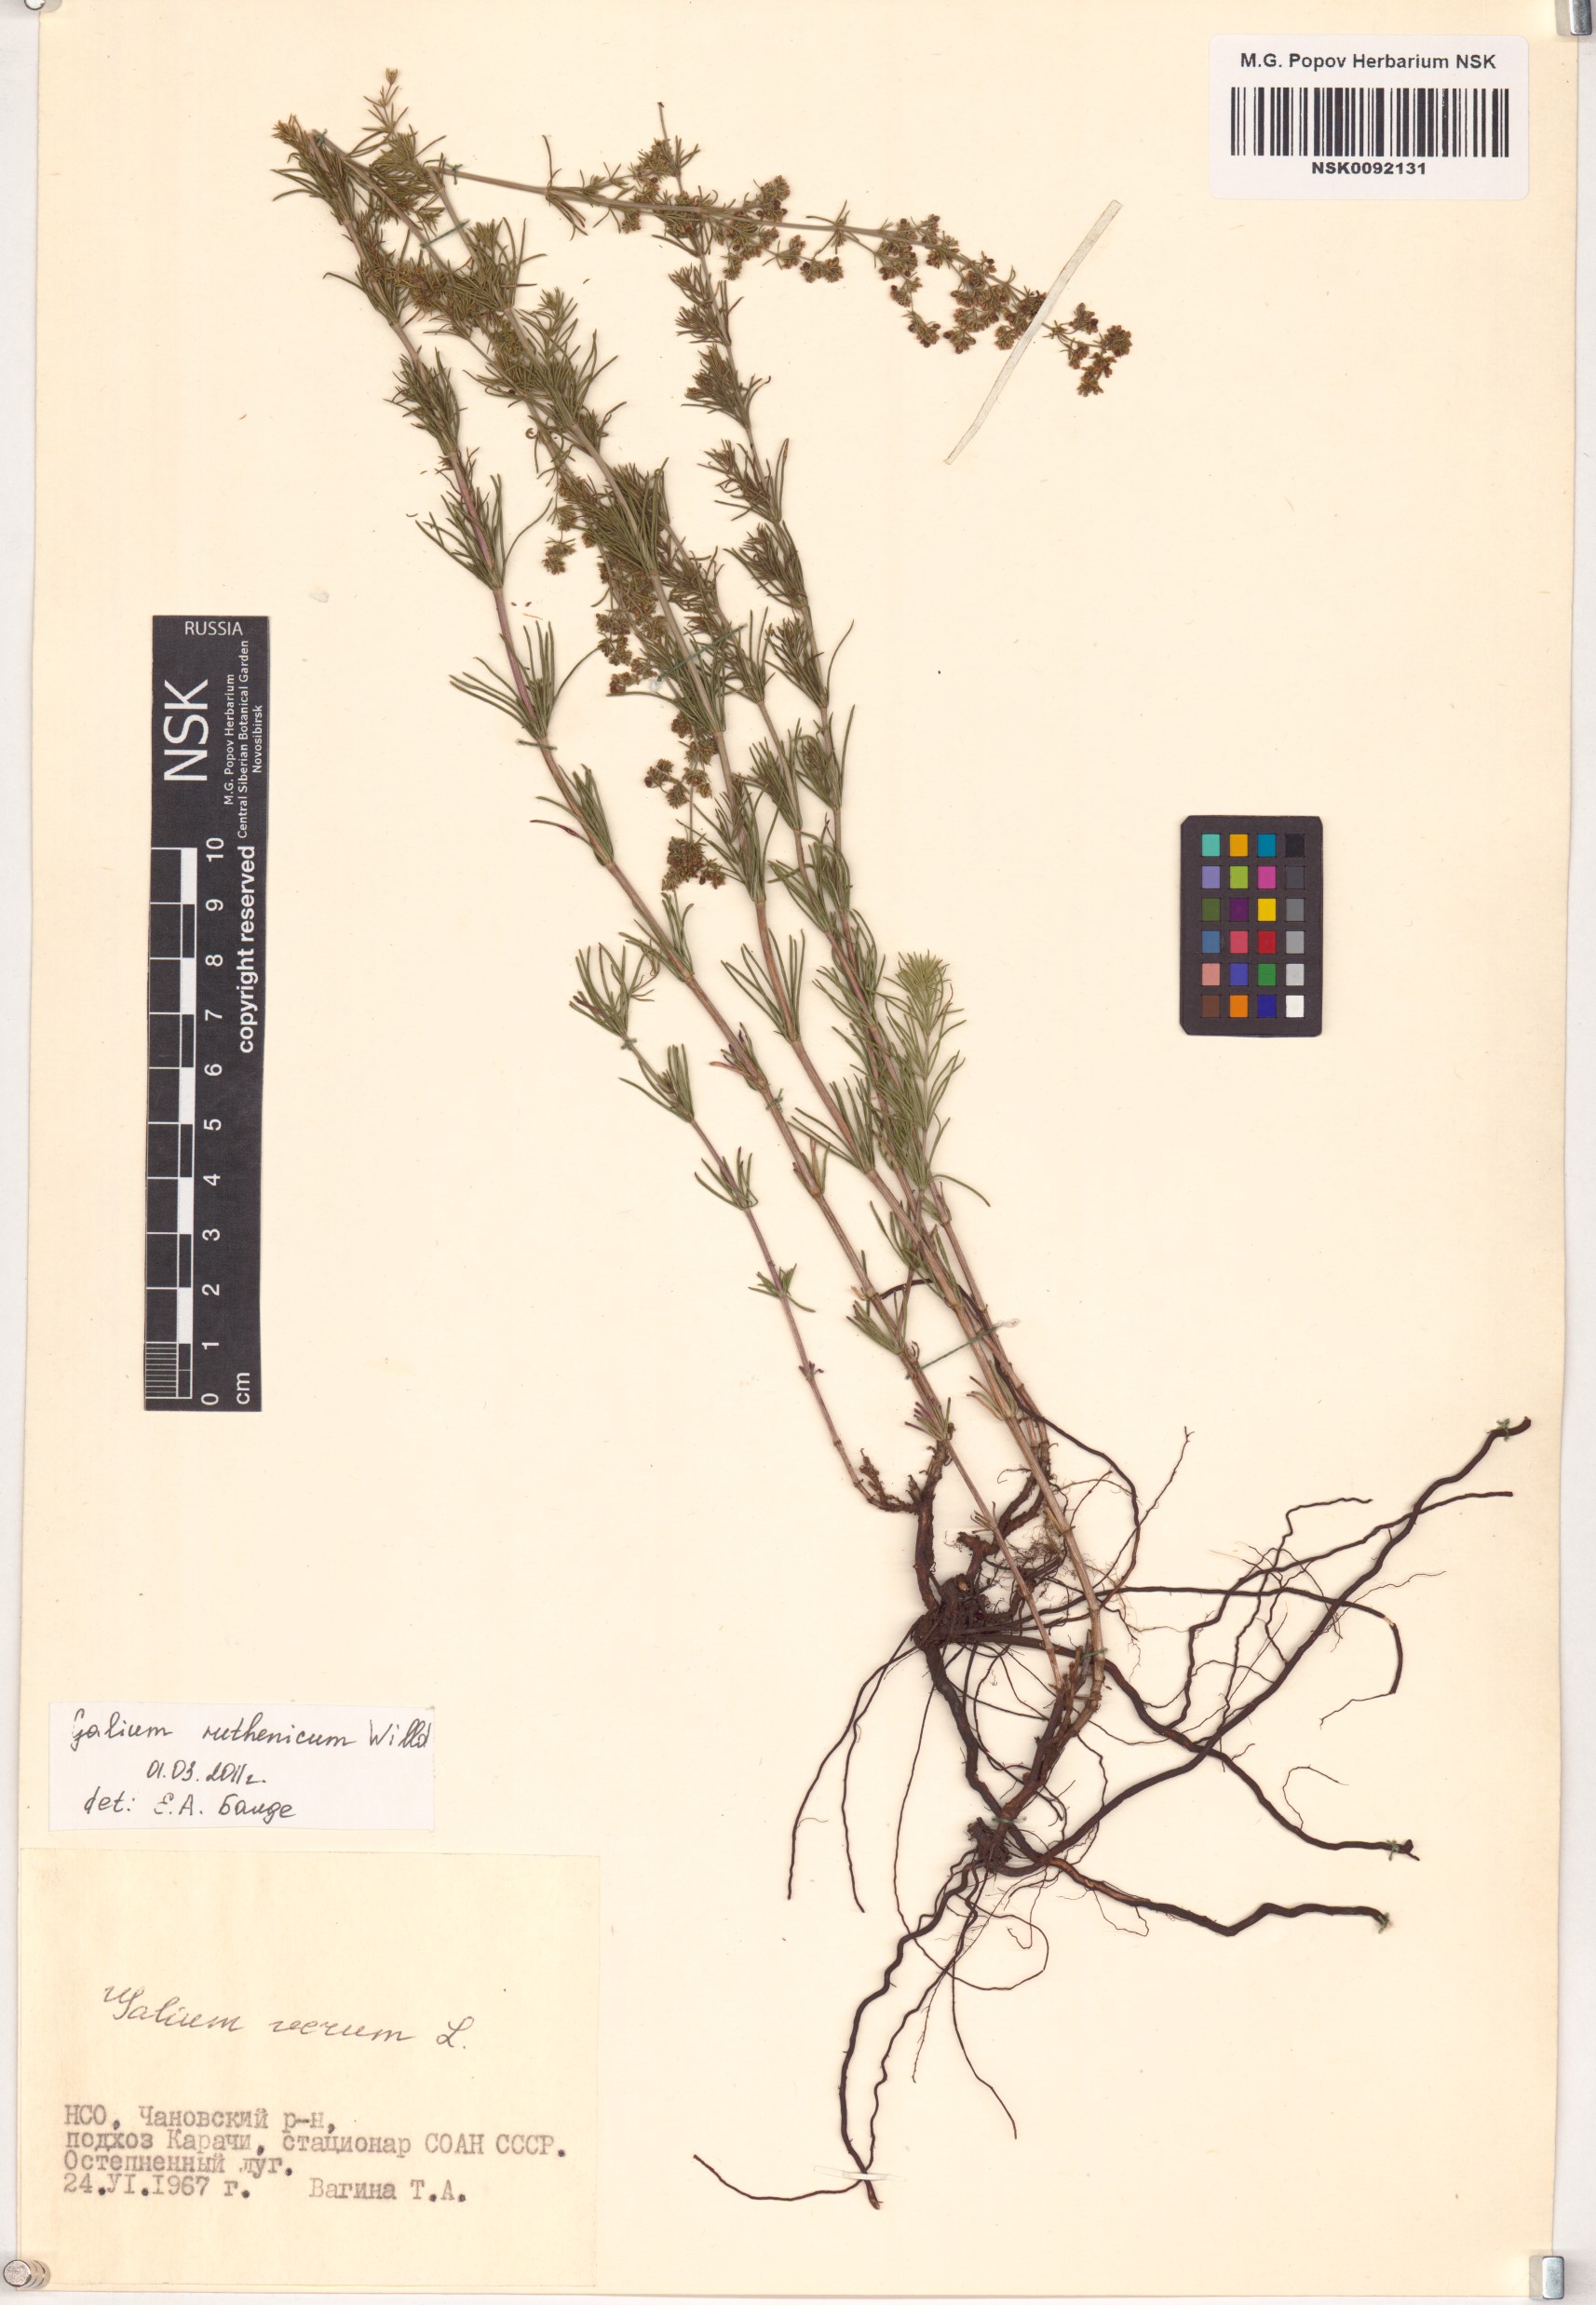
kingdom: Plantae
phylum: Tracheophyta
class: Magnoliopsida
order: Gentianales
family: Rubiaceae
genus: Galium
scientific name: Galium verum
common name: Lady's bedstraw
